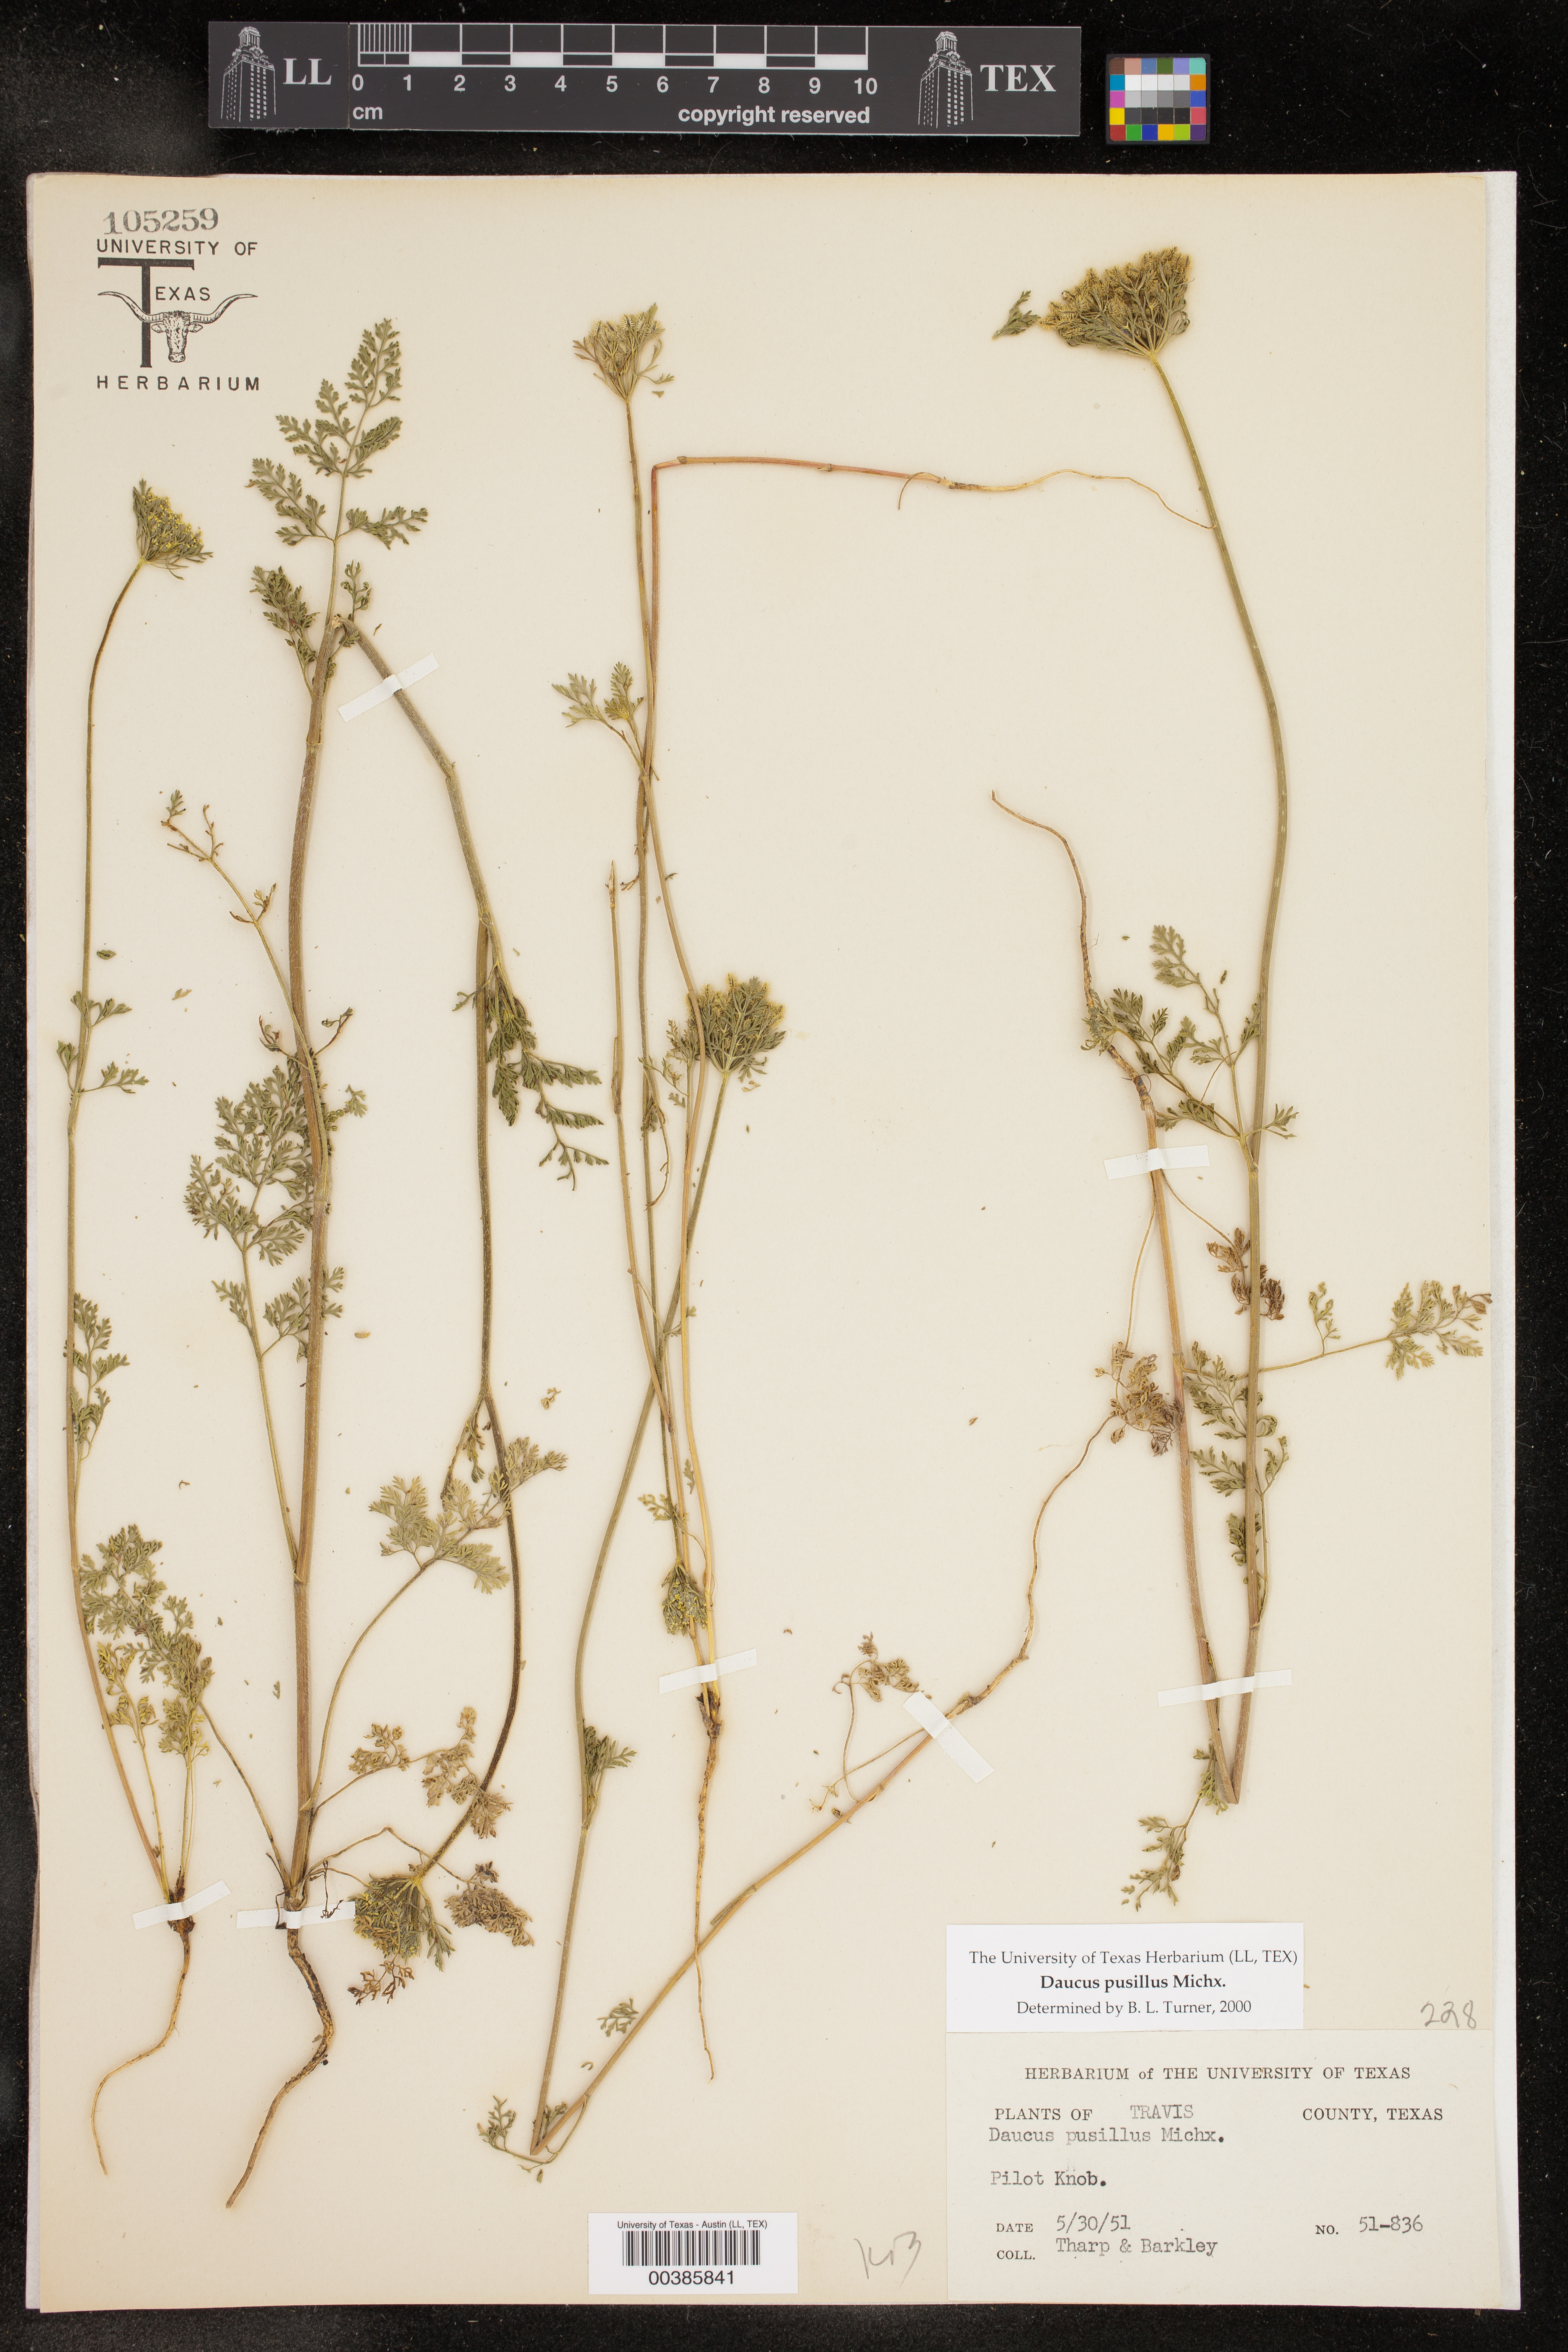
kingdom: Plantae
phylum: Tracheophyta
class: Magnoliopsida
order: Apiales
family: Apiaceae
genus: Daucus
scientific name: Daucus pusillus
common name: Southwest wild carrot
